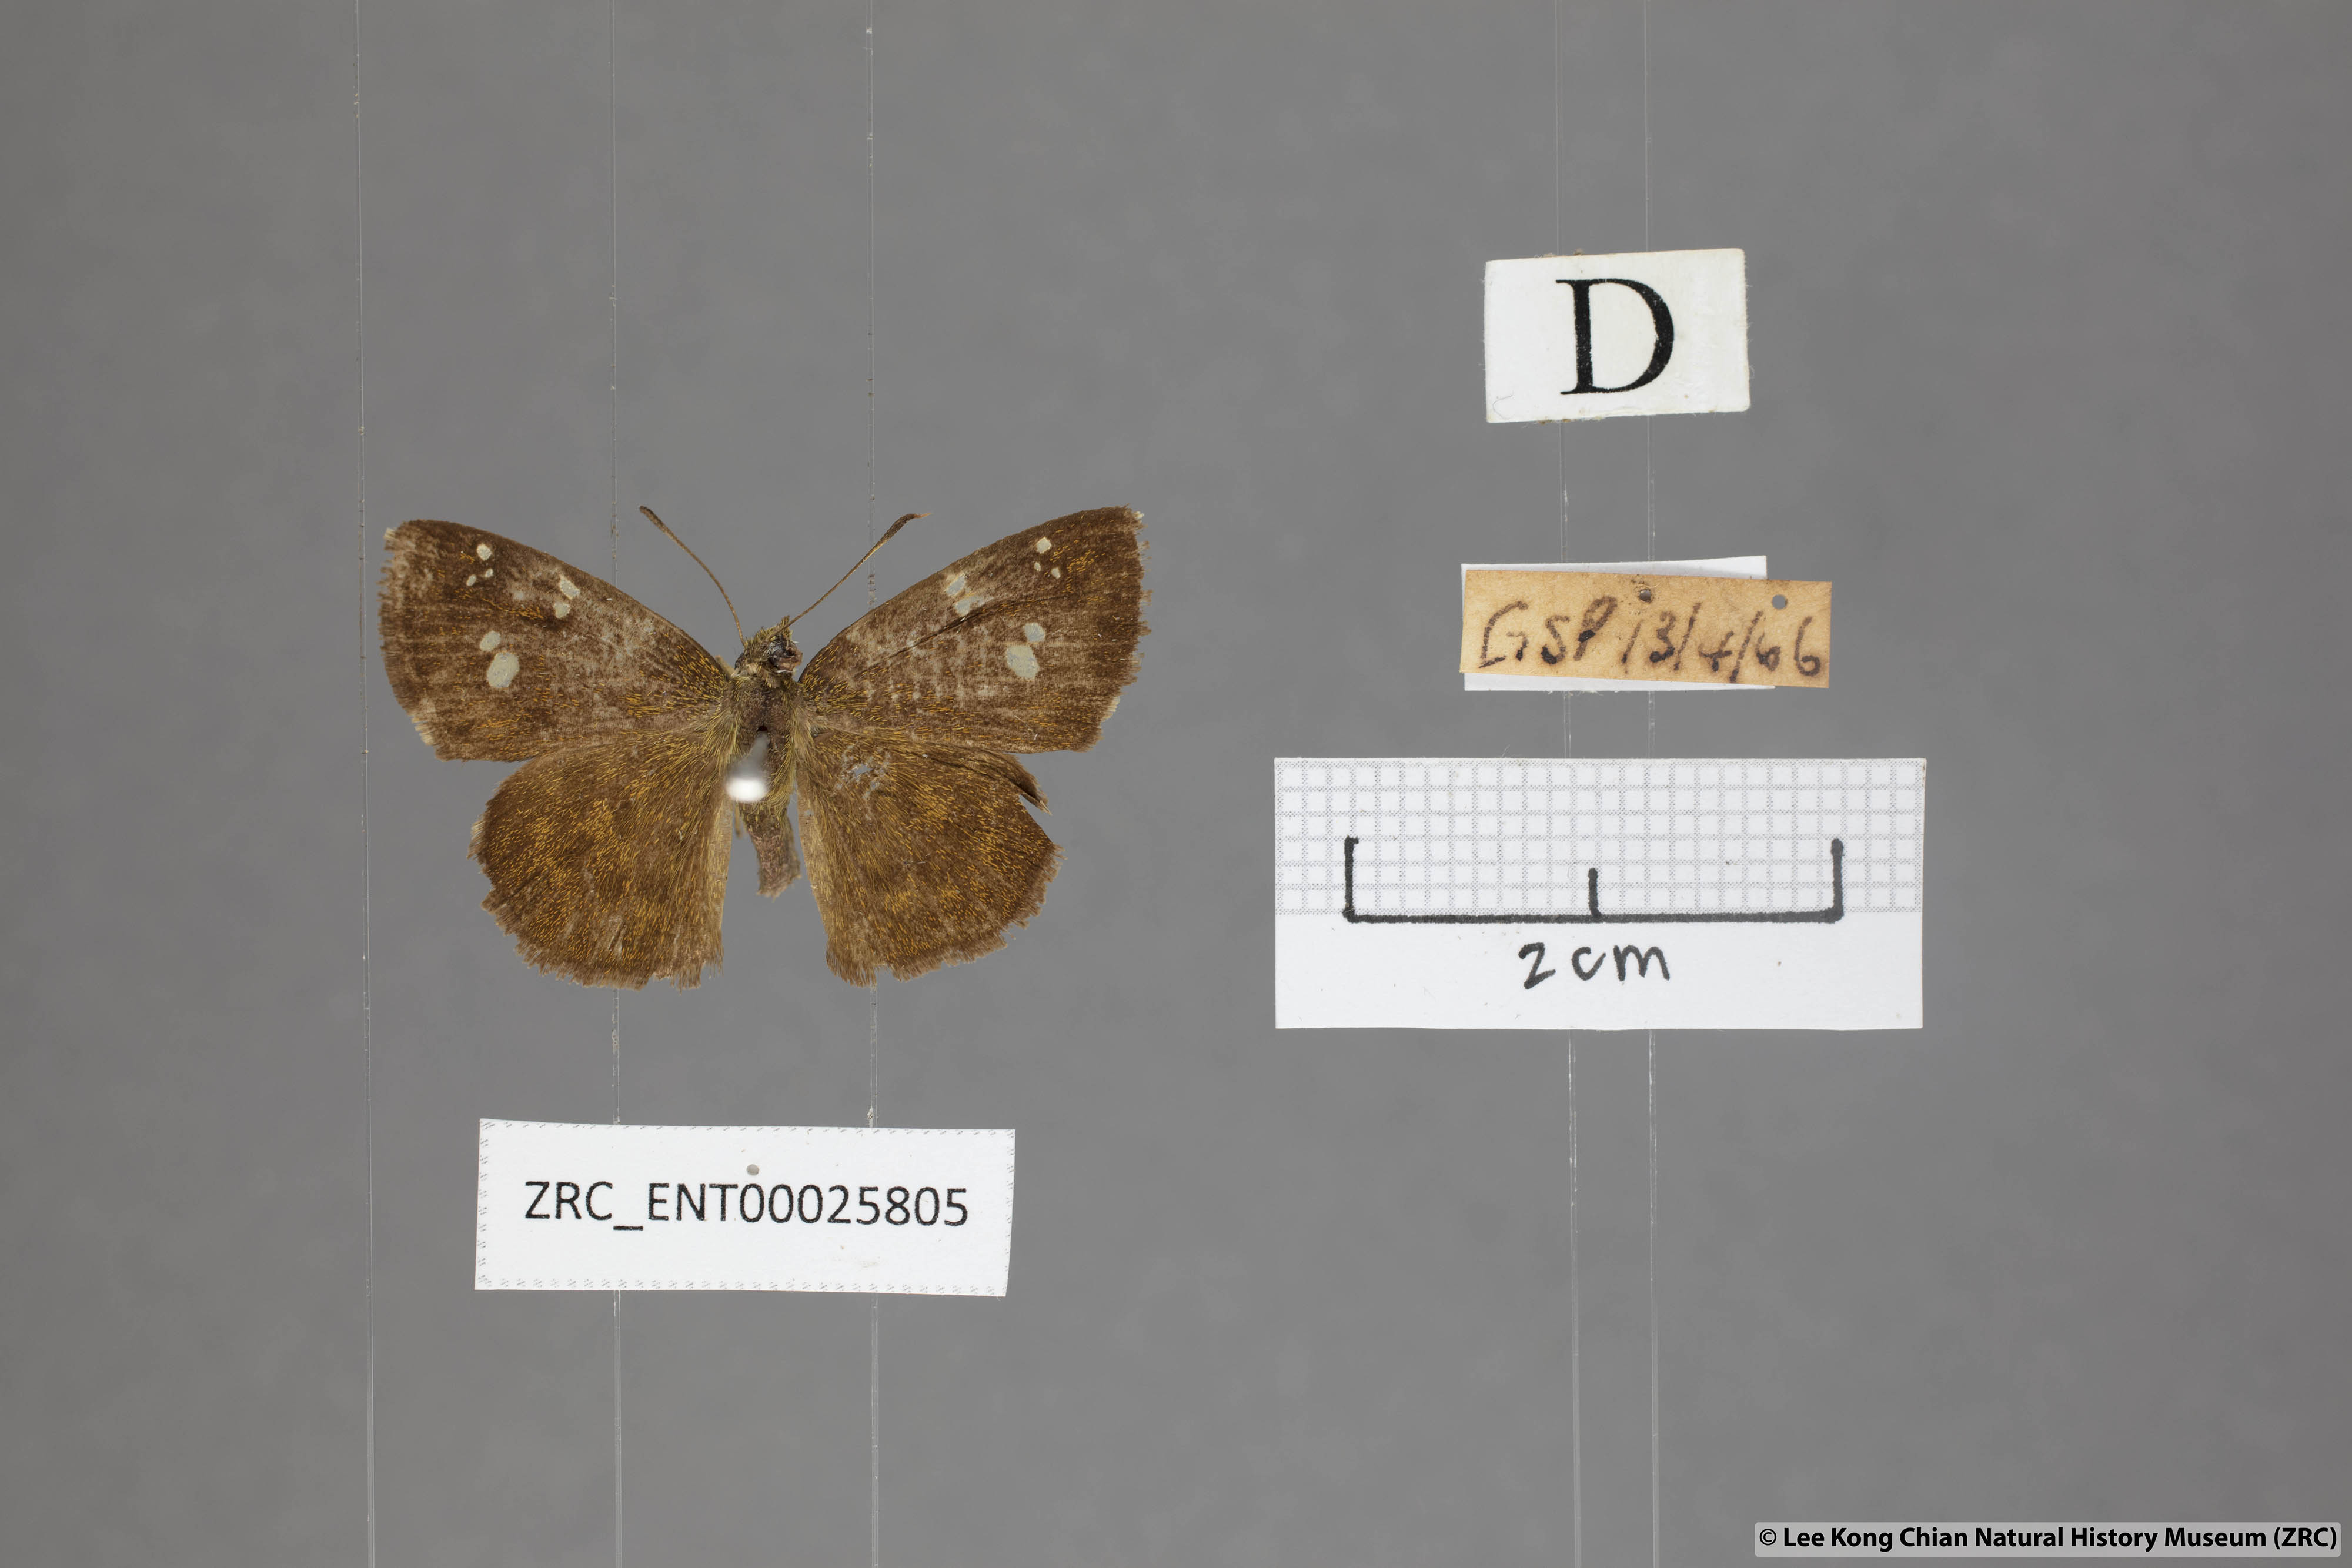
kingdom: Animalia
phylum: Arthropoda
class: Insecta
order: Lepidoptera
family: Hesperiidae
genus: Pseudocoladenia
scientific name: Pseudocoladenia dan
